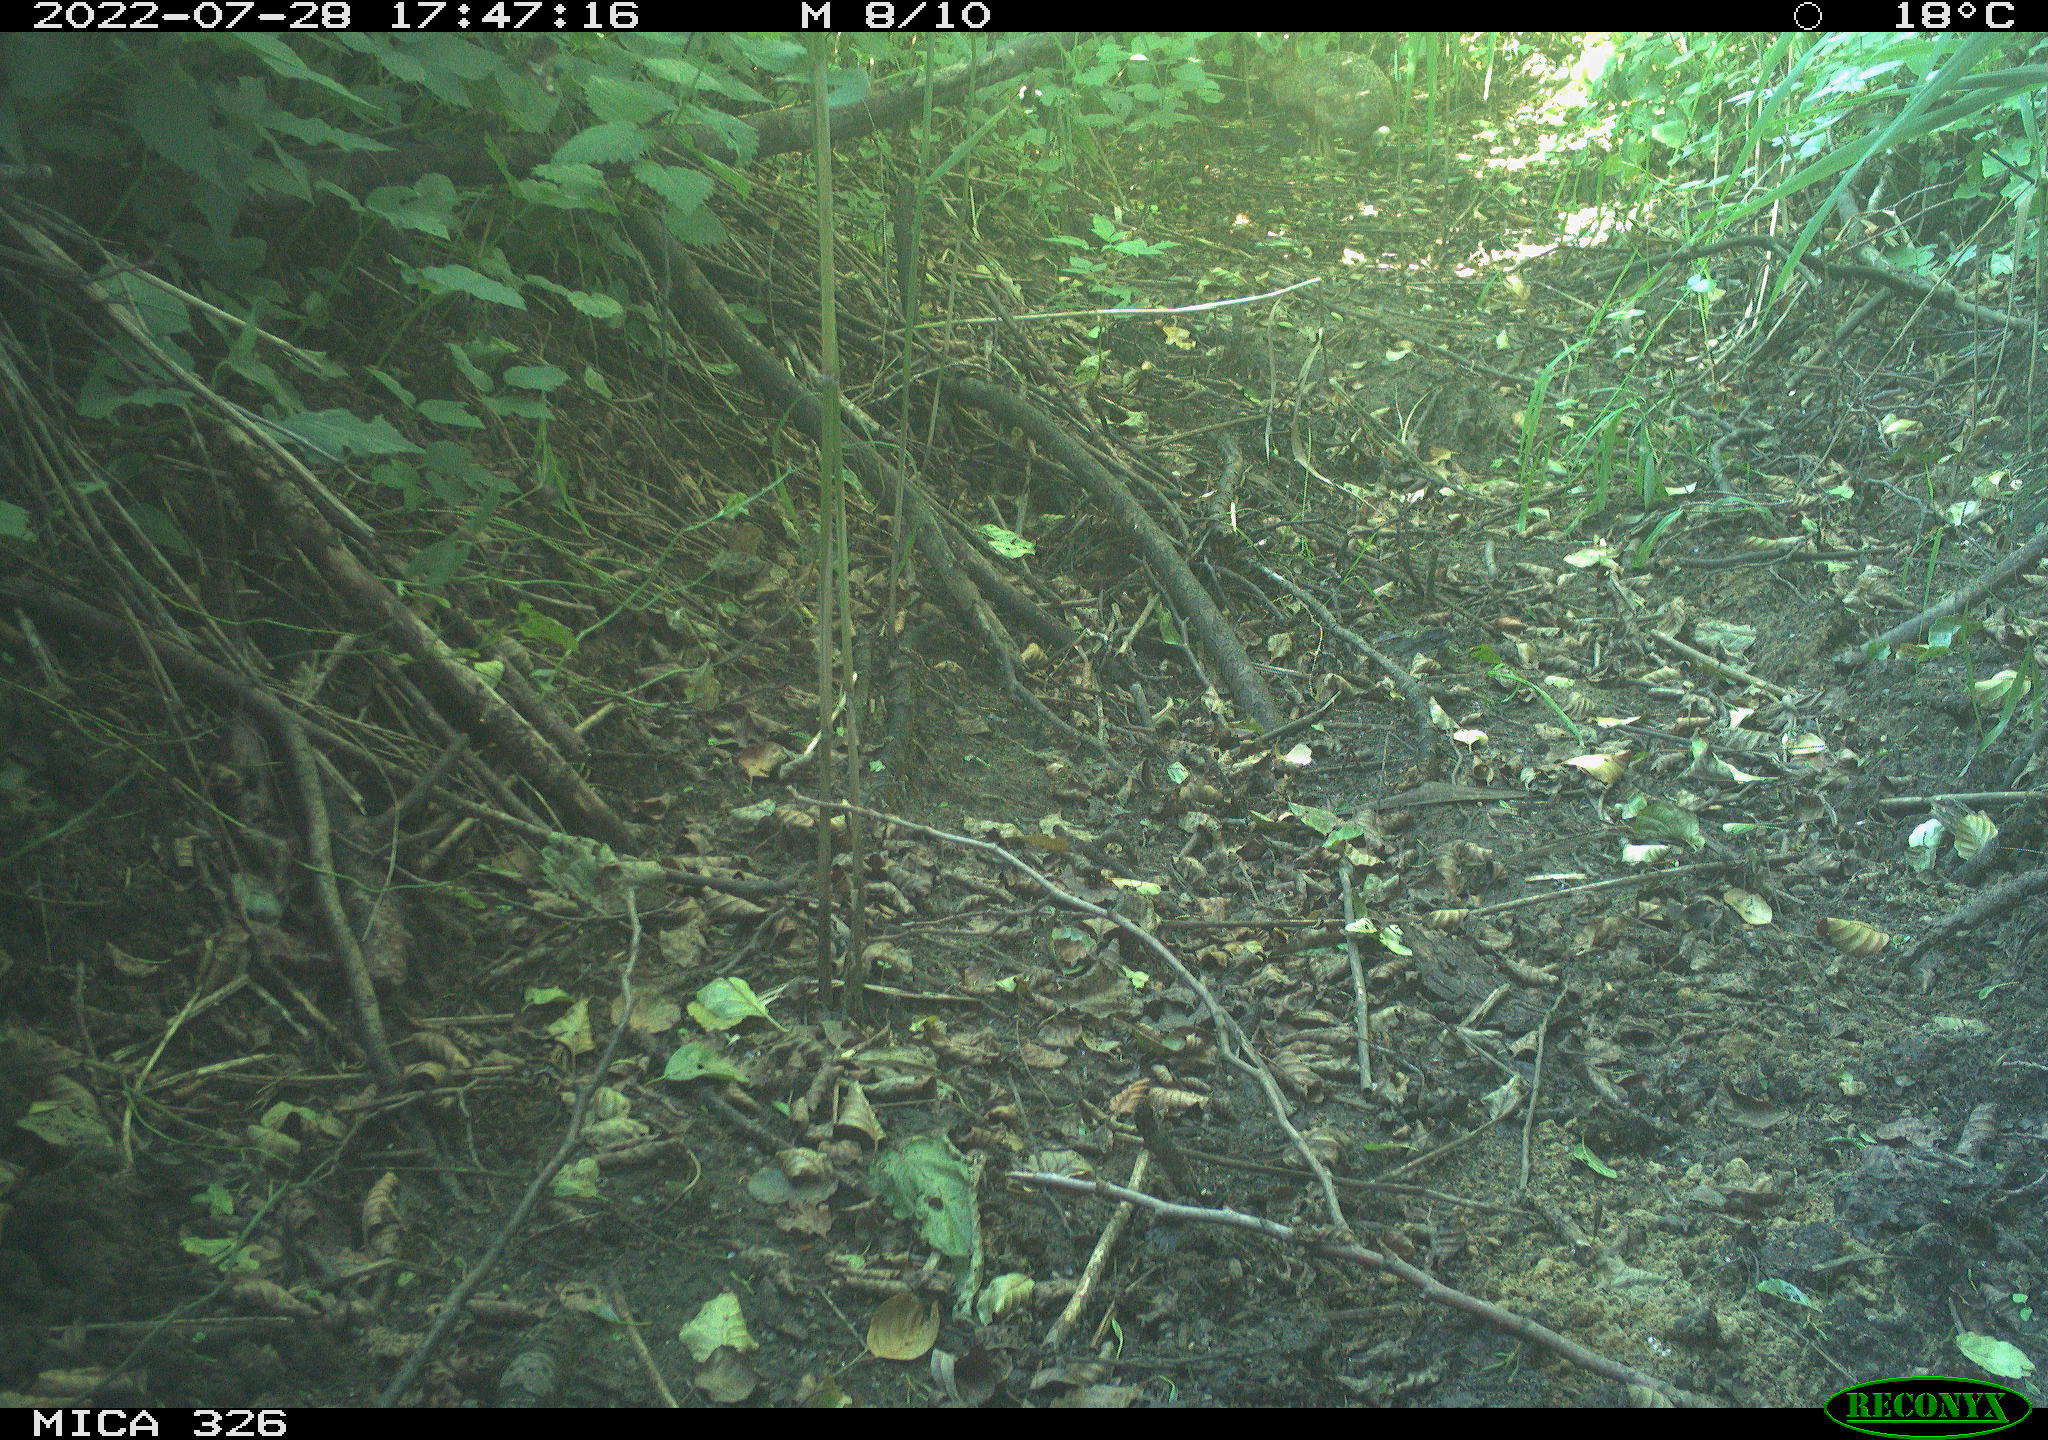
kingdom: Animalia
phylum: Chordata
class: Mammalia
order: Lagomorpha
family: Leporidae
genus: Lepus
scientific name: Lepus europaeus
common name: European hare
